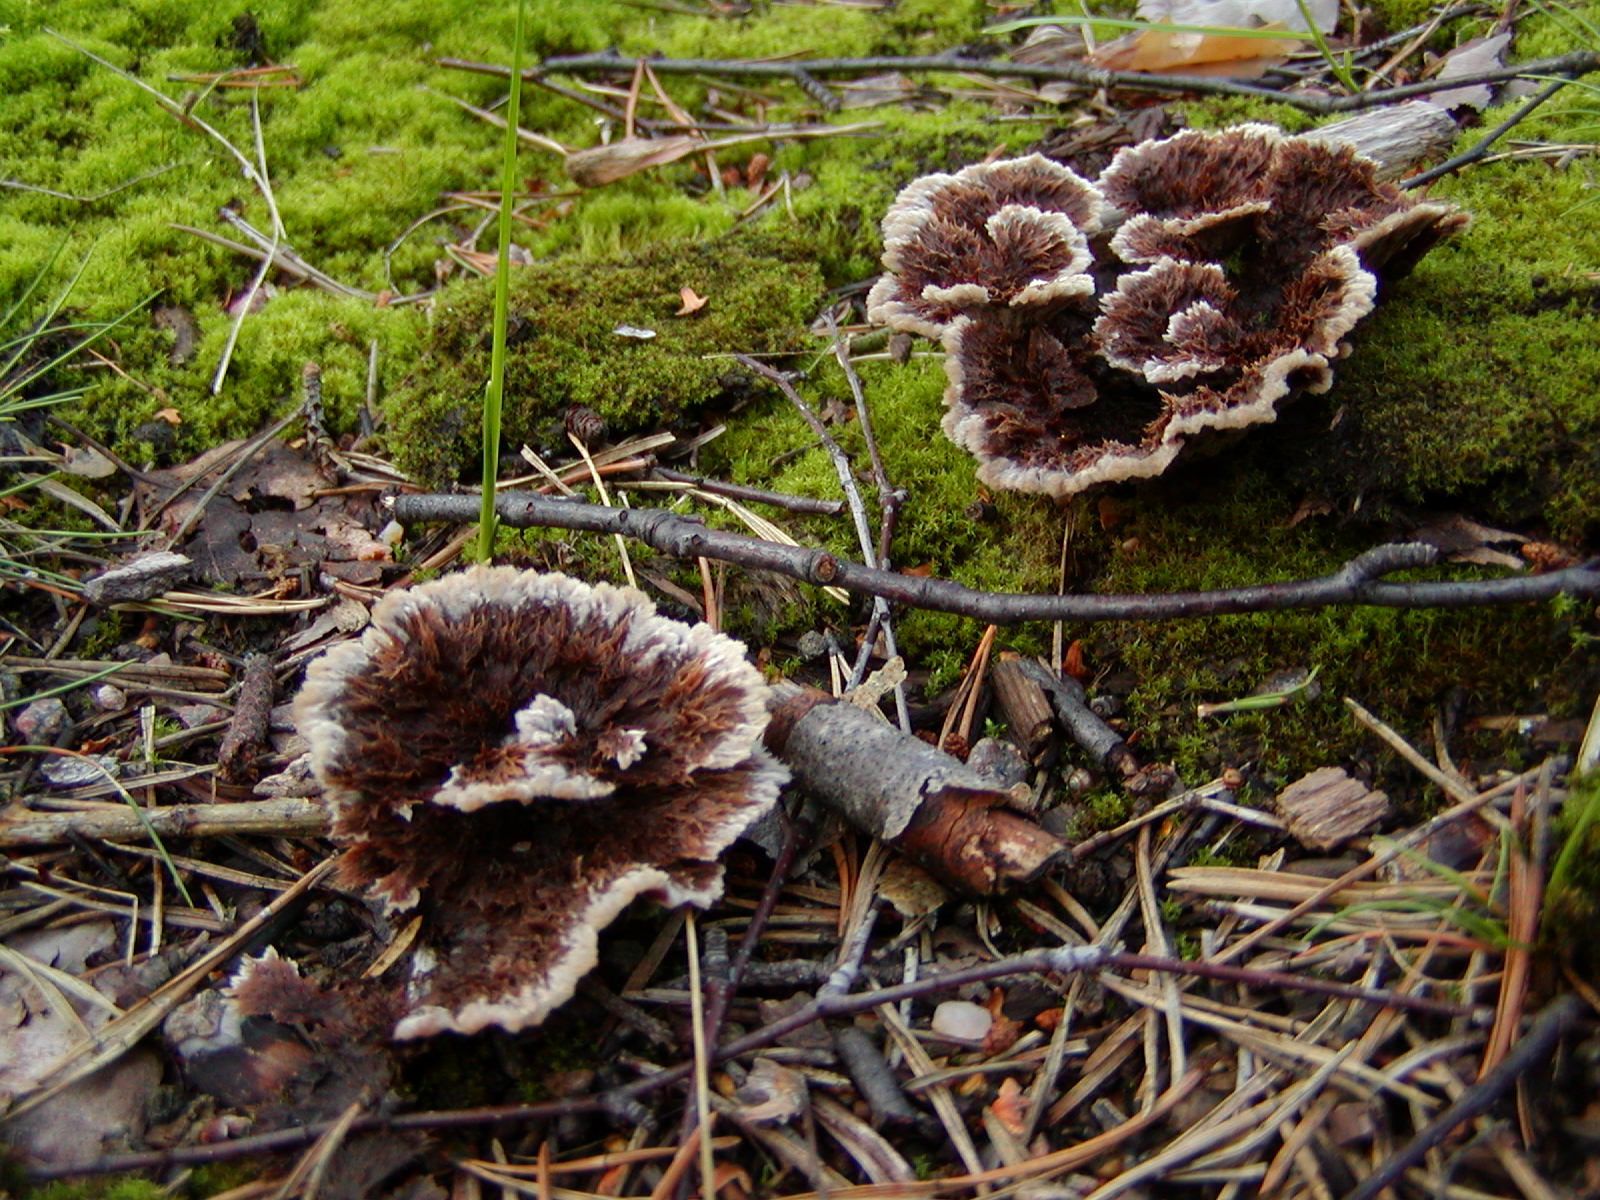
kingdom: Fungi
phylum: Basidiomycota
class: Agaricomycetes
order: Thelephorales
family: Thelephoraceae
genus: Thelephora
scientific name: Thelephora terrestris
